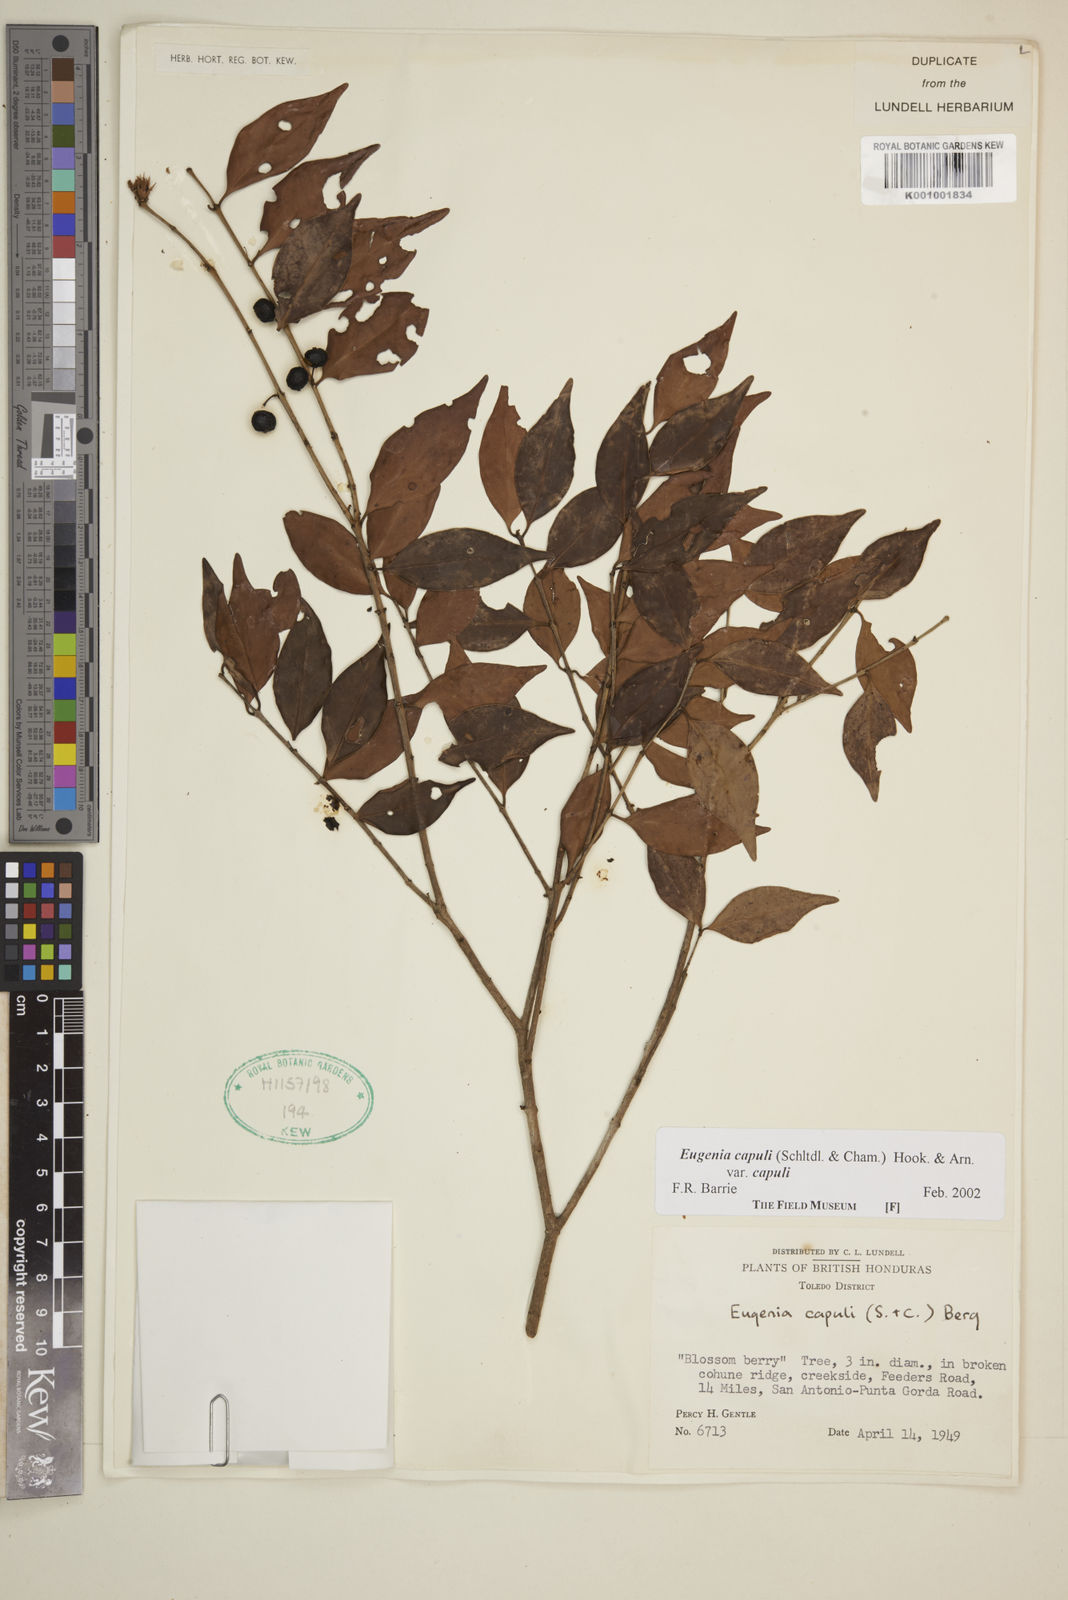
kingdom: Plantae
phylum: Tracheophyta
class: Magnoliopsida
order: Myrtales
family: Myrtaceae
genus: Eugenia
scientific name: Eugenia capuli
